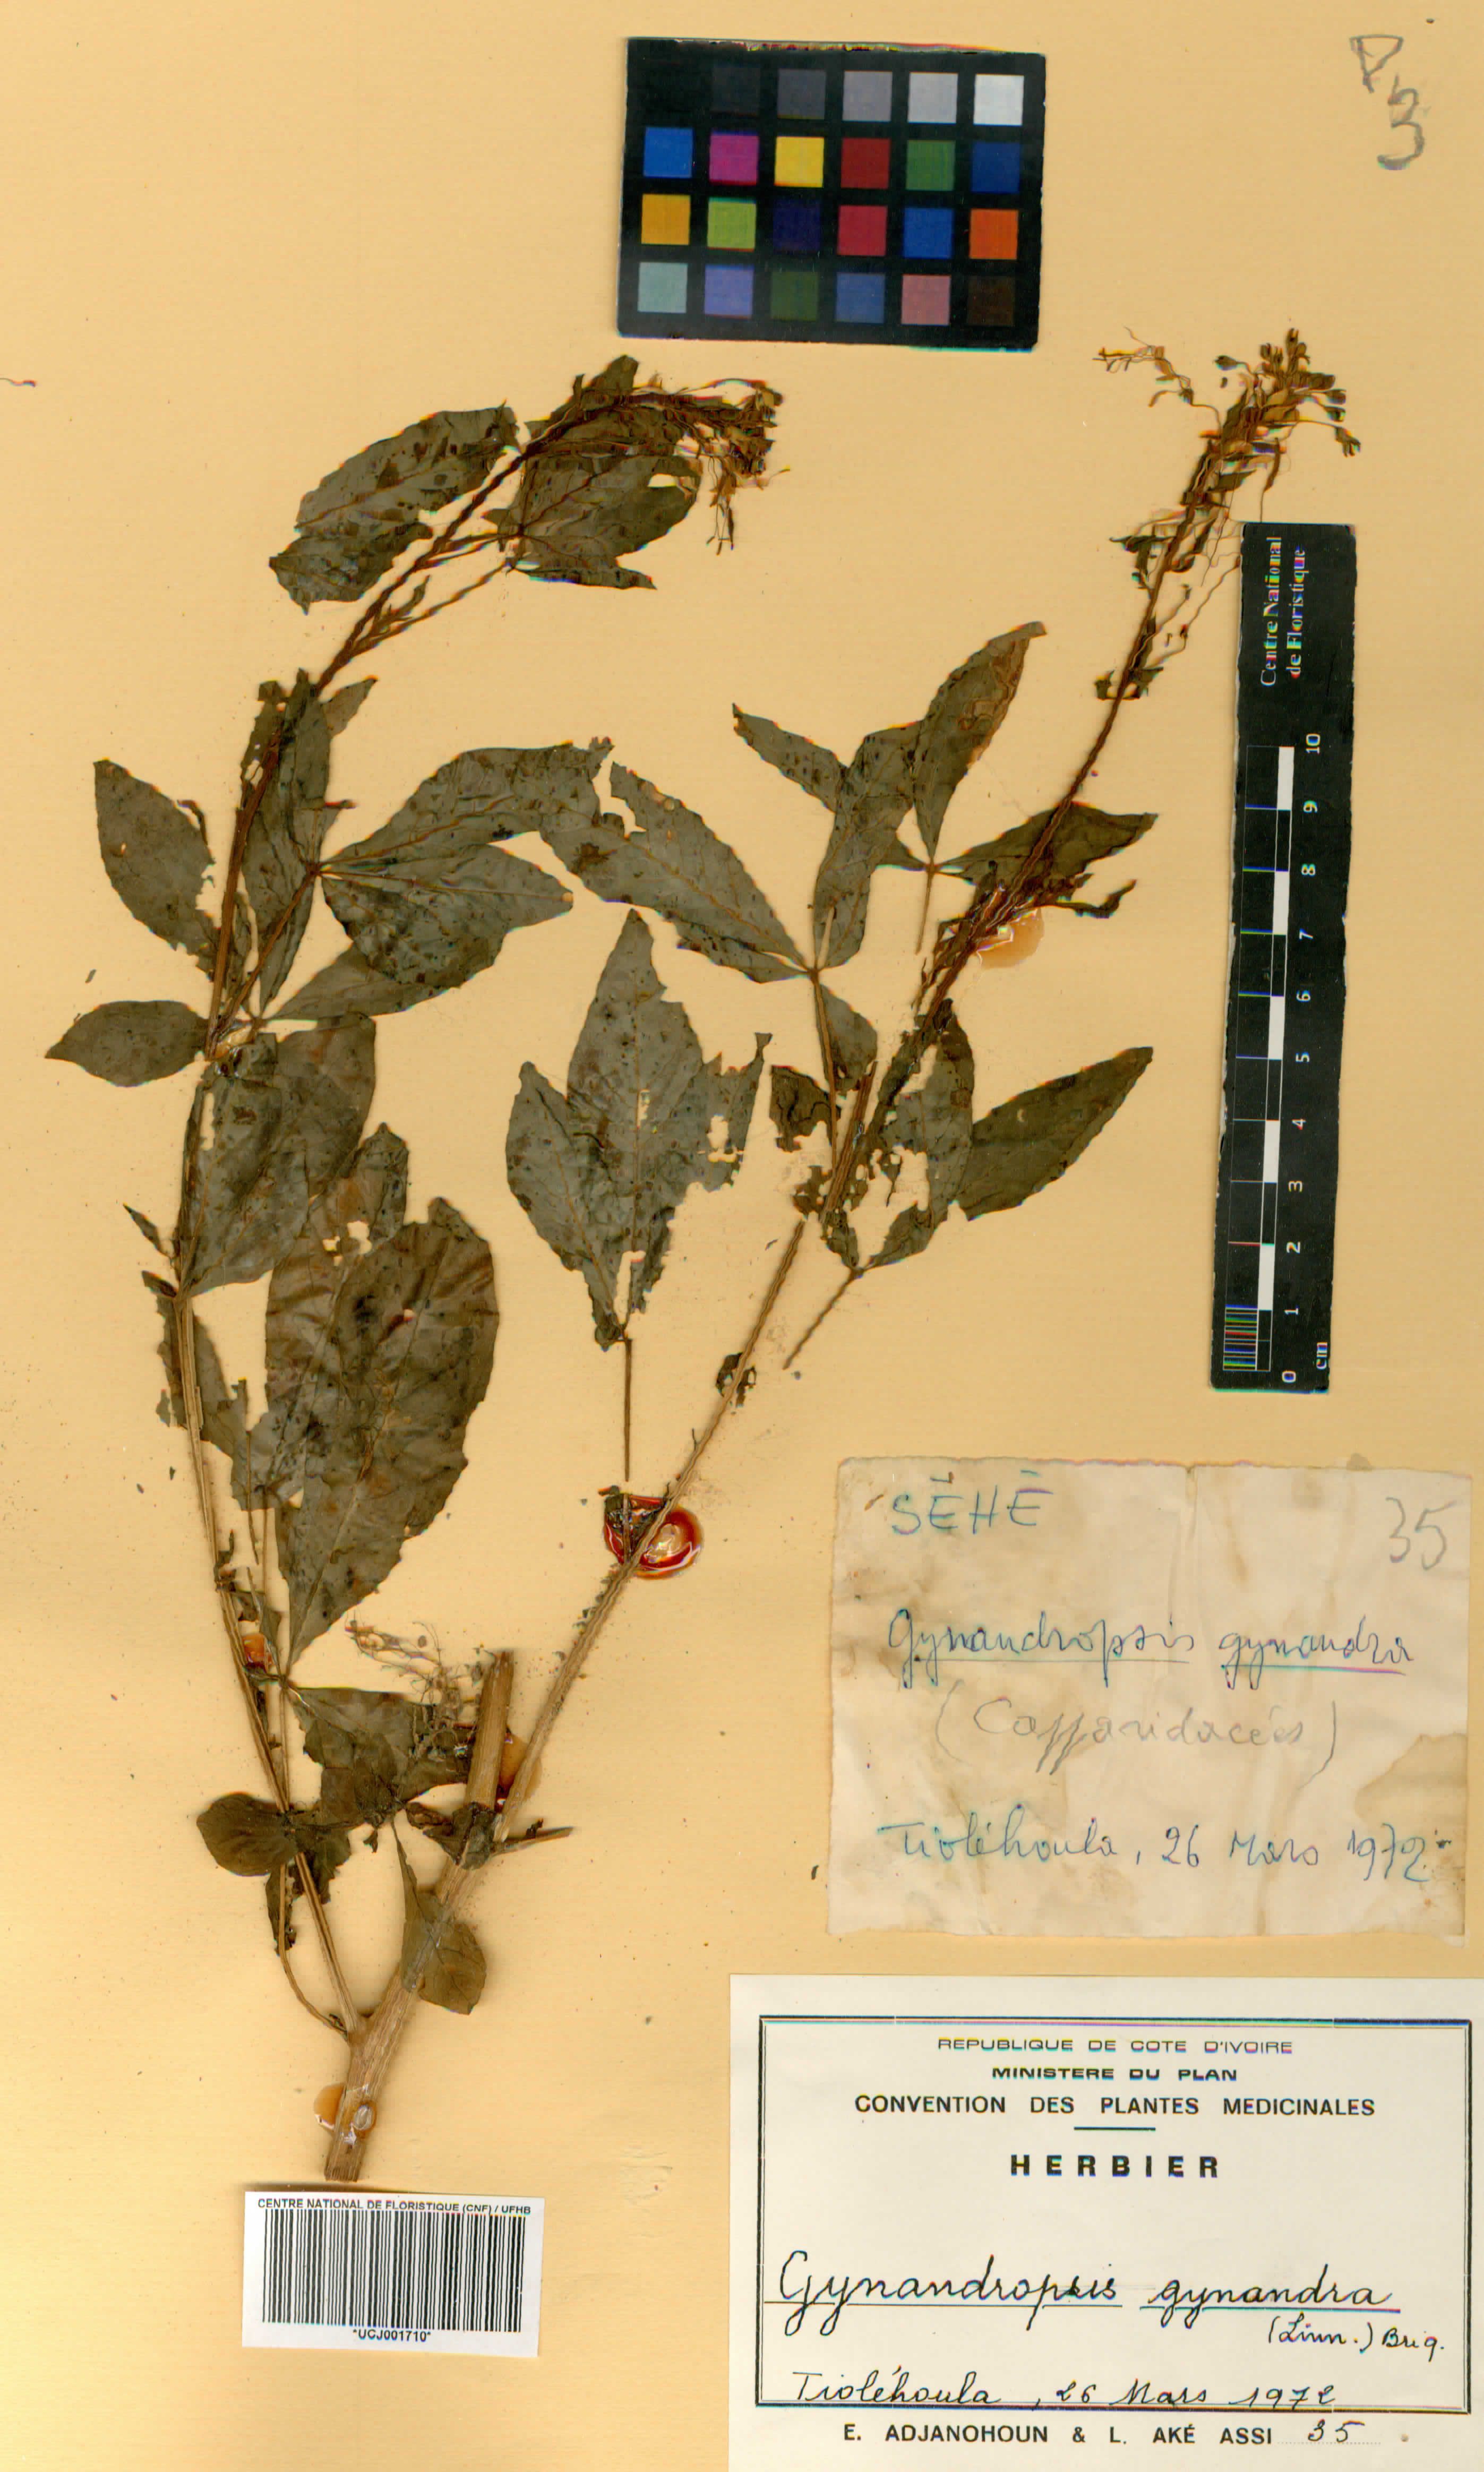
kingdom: Plantae
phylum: Tracheophyta
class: Magnoliopsida
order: Brassicales
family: Cleomaceae
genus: Gynandropsis
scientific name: Gynandropsis gynandra
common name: Spiderwisp
